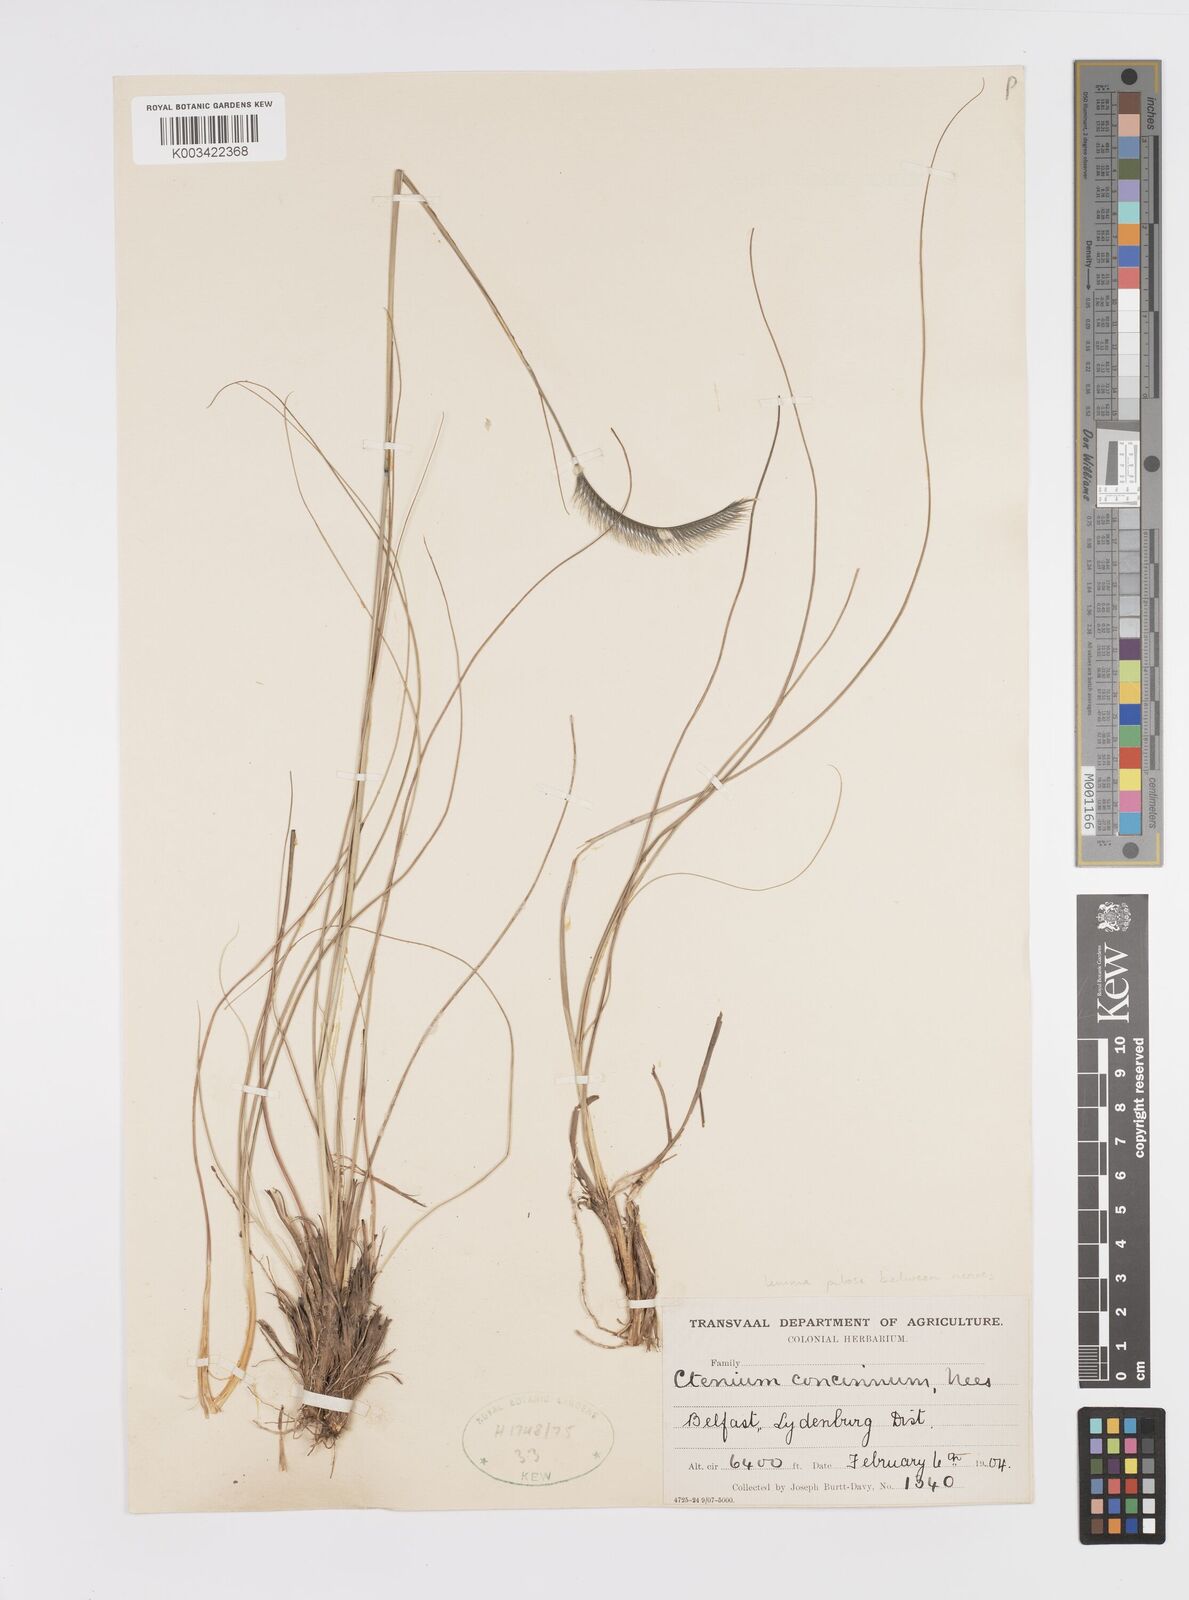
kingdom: Plantae
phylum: Tracheophyta
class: Liliopsida
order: Poales
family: Poaceae
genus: Ctenium
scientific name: Ctenium concinnum
